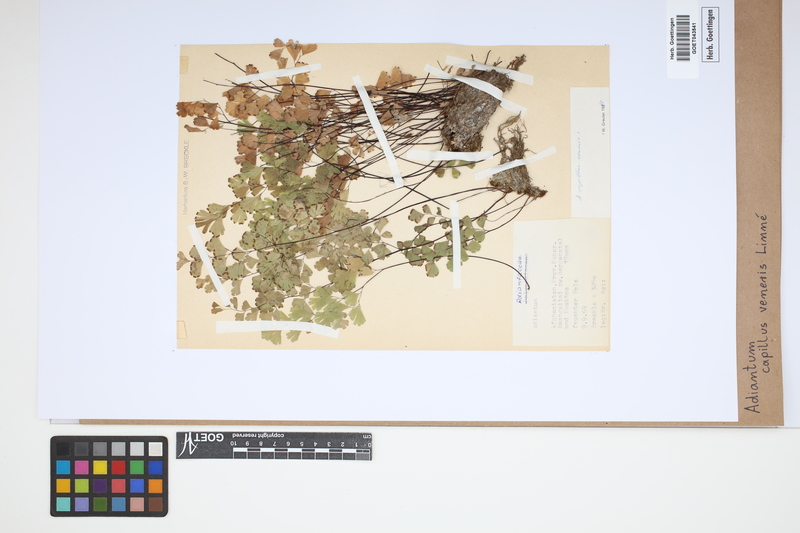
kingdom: Plantae
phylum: Tracheophyta
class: Polypodiopsida
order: Polypodiales
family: Pteridaceae
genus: Adiantum
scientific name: Adiantum capillus-veneris
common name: Maidenhair fern
